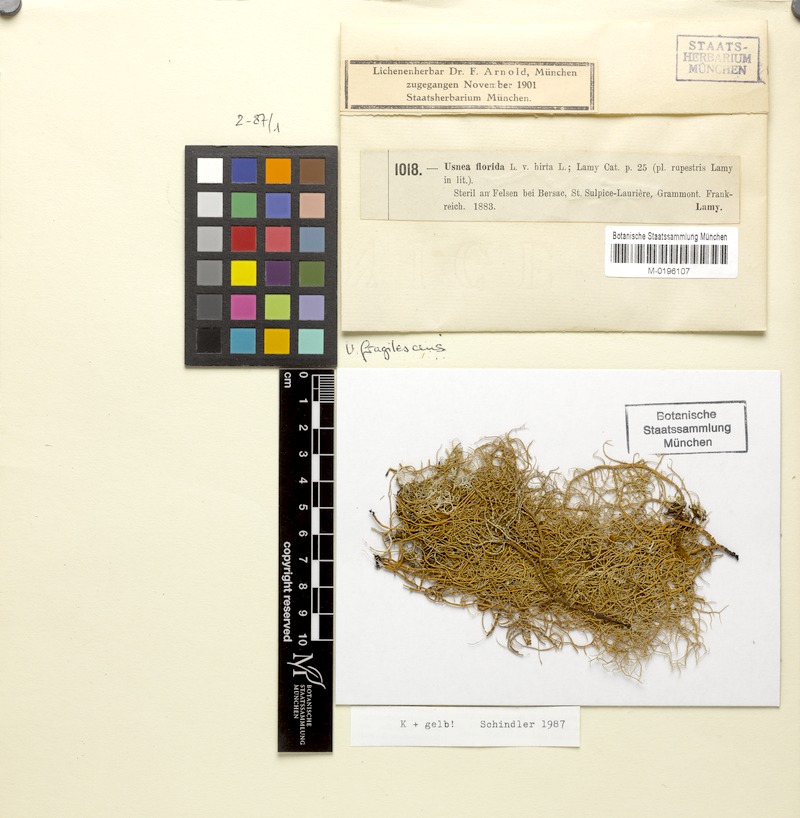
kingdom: Fungi
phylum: Ascomycota
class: Lecanoromycetes
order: Lecanorales
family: Parmeliaceae
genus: Usnea
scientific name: Usnea fragilescens
